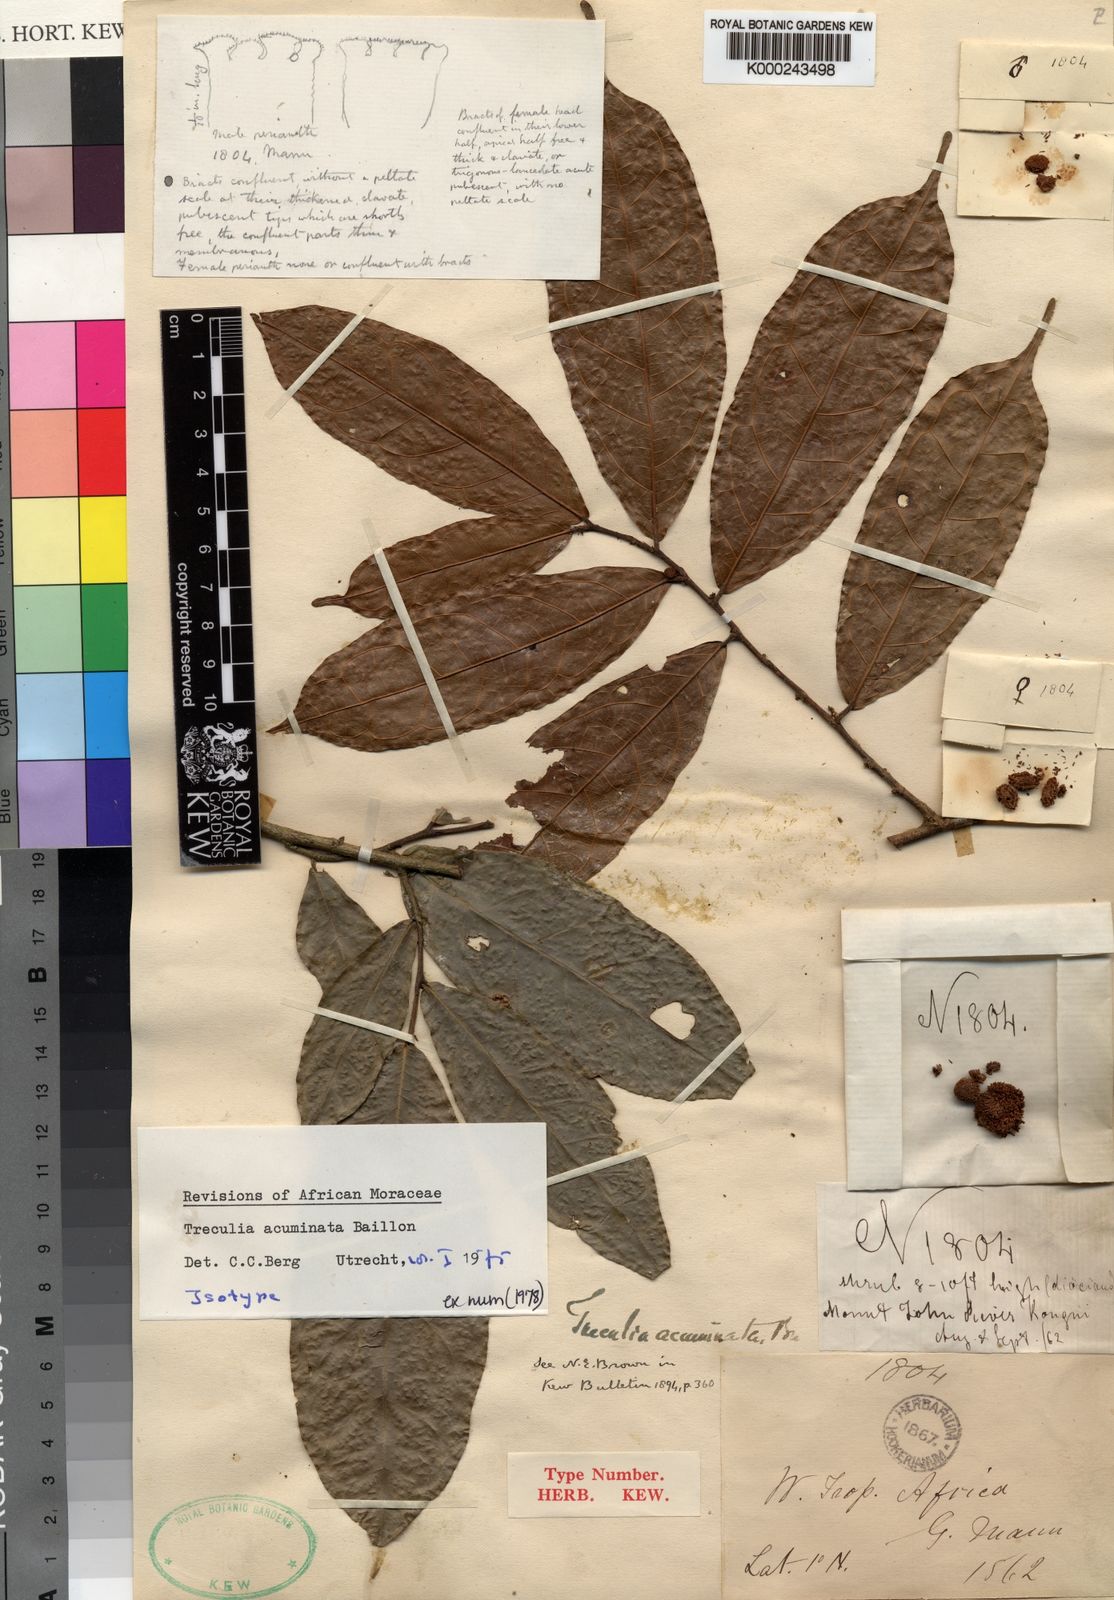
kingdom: Plantae
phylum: Tracheophyta
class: Magnoliopsida
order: Rosales
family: Moraceae
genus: Treculia
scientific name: Treculia acuminata
